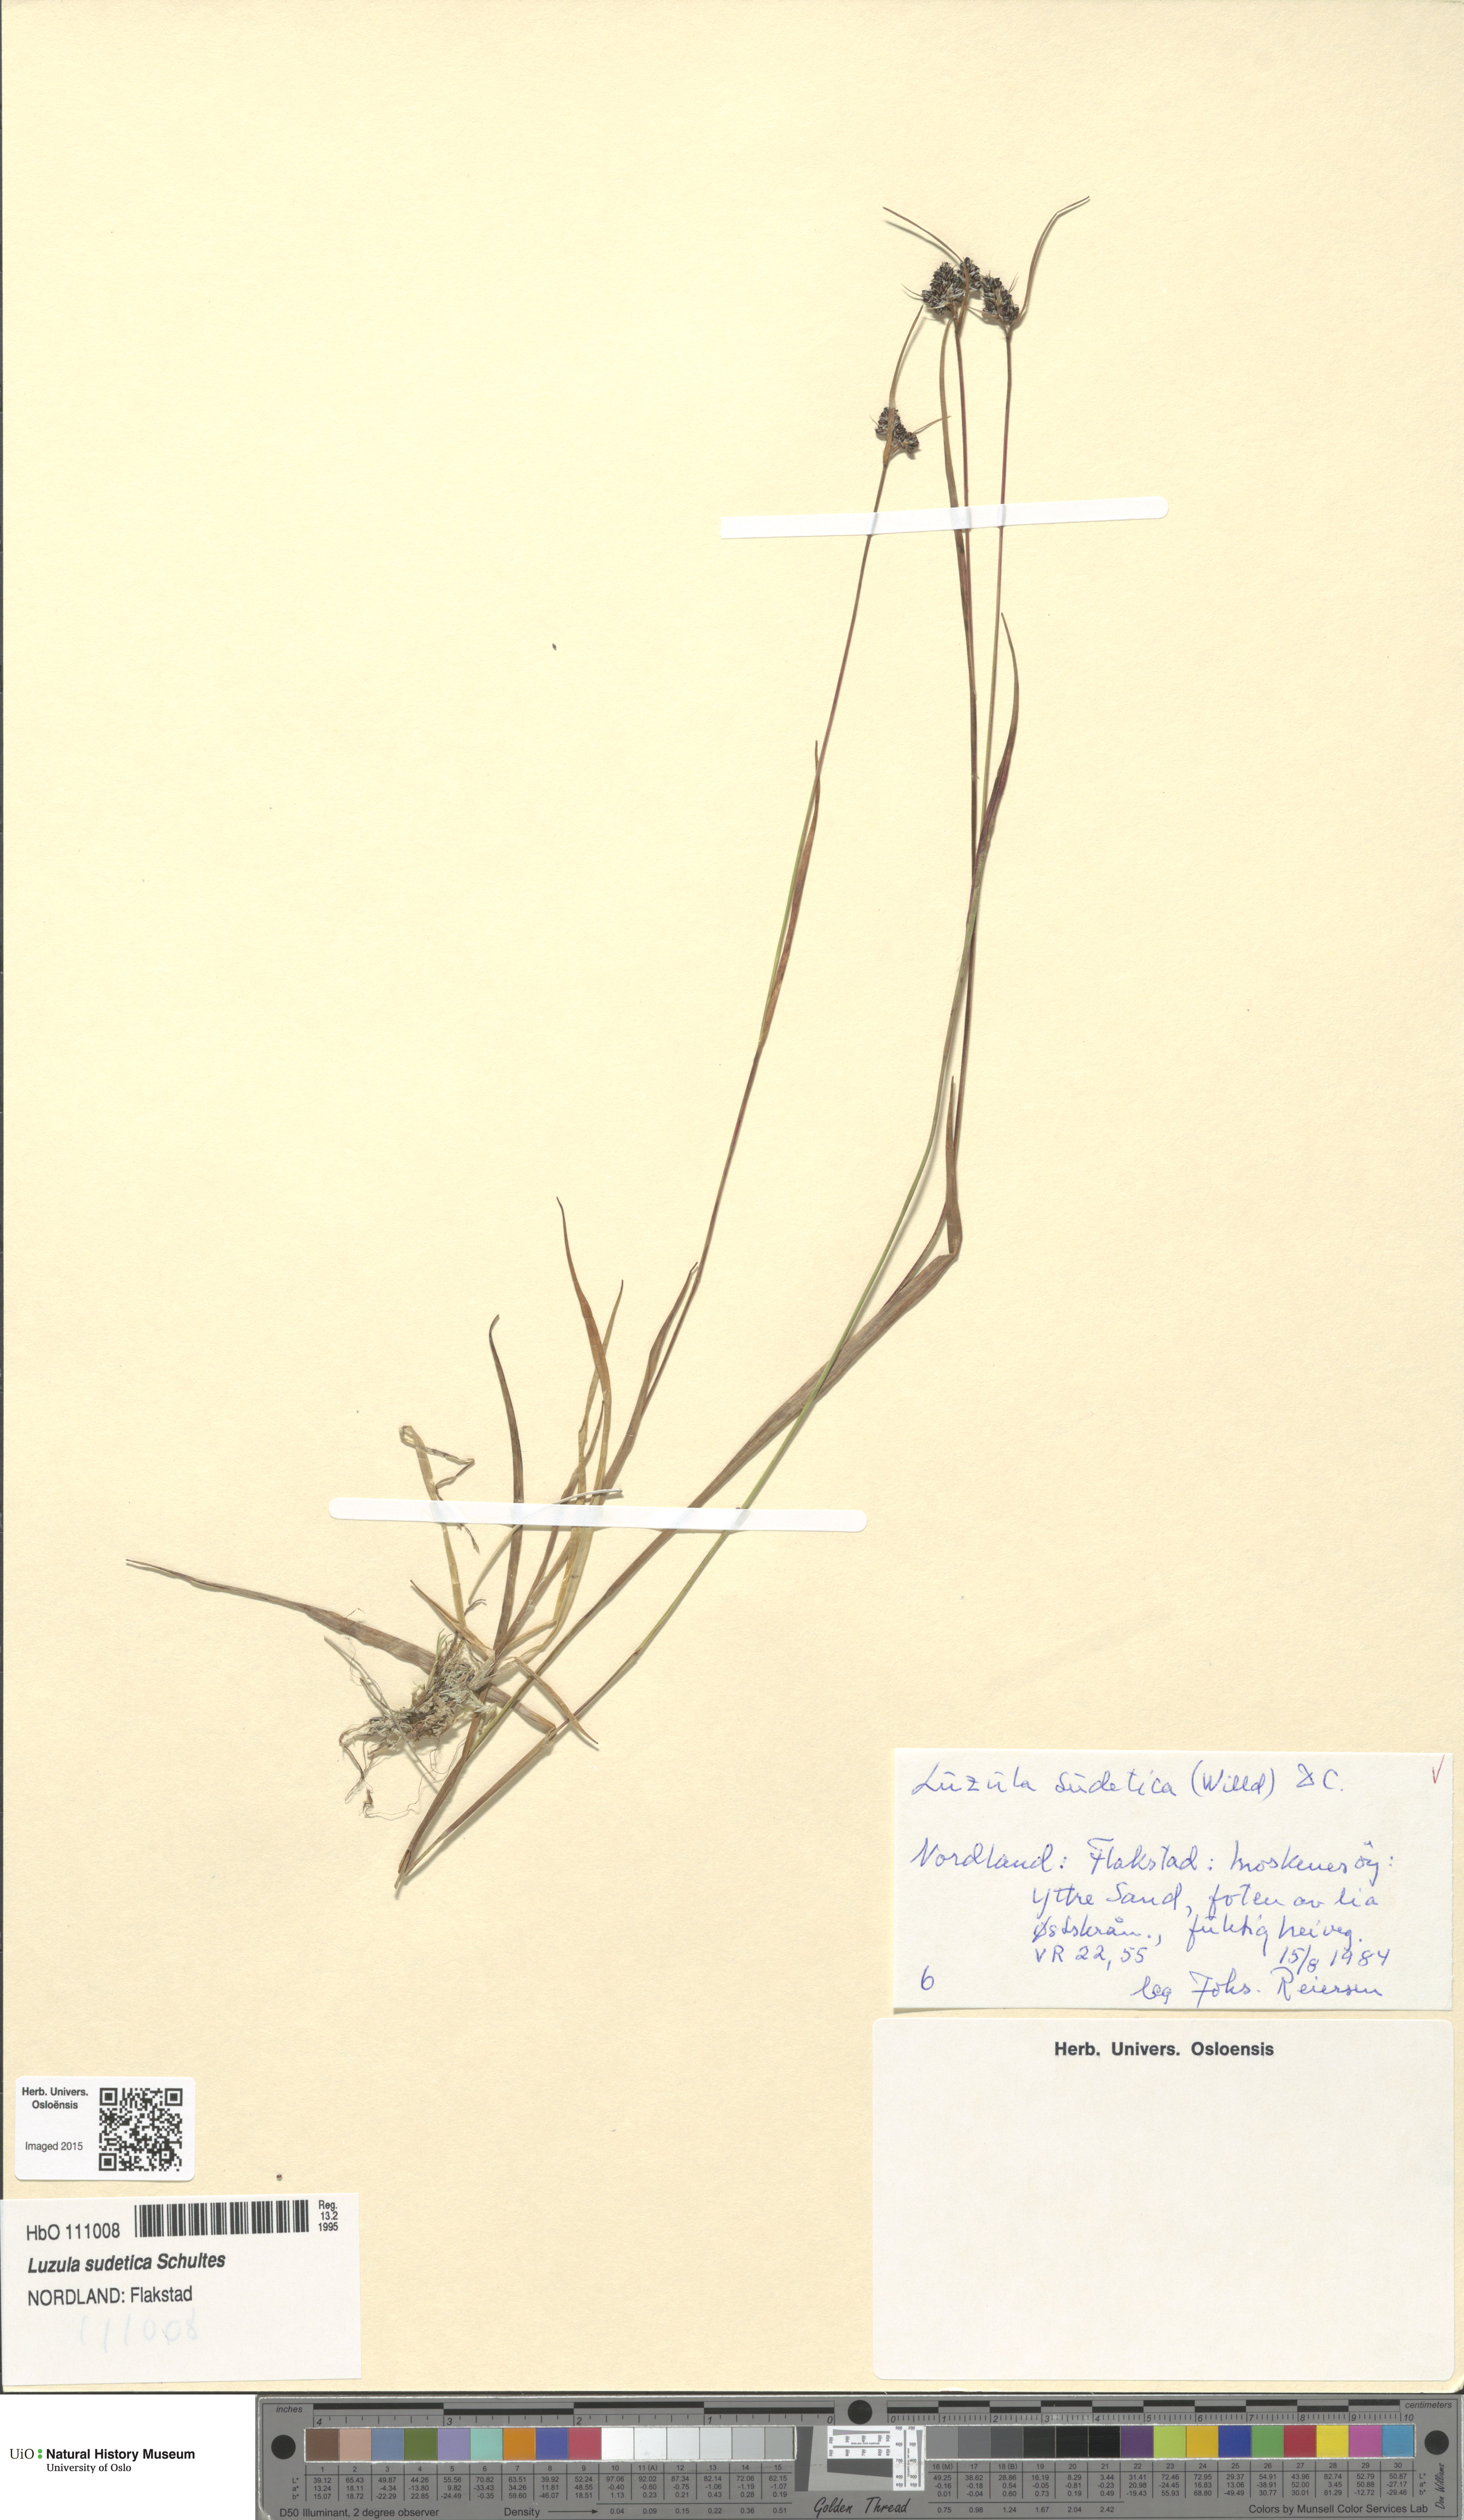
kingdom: Plantae
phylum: Tracheophyta
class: Liliopsida
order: Poales
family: Juncaceae
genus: Luzula
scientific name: Luzula sudetica
